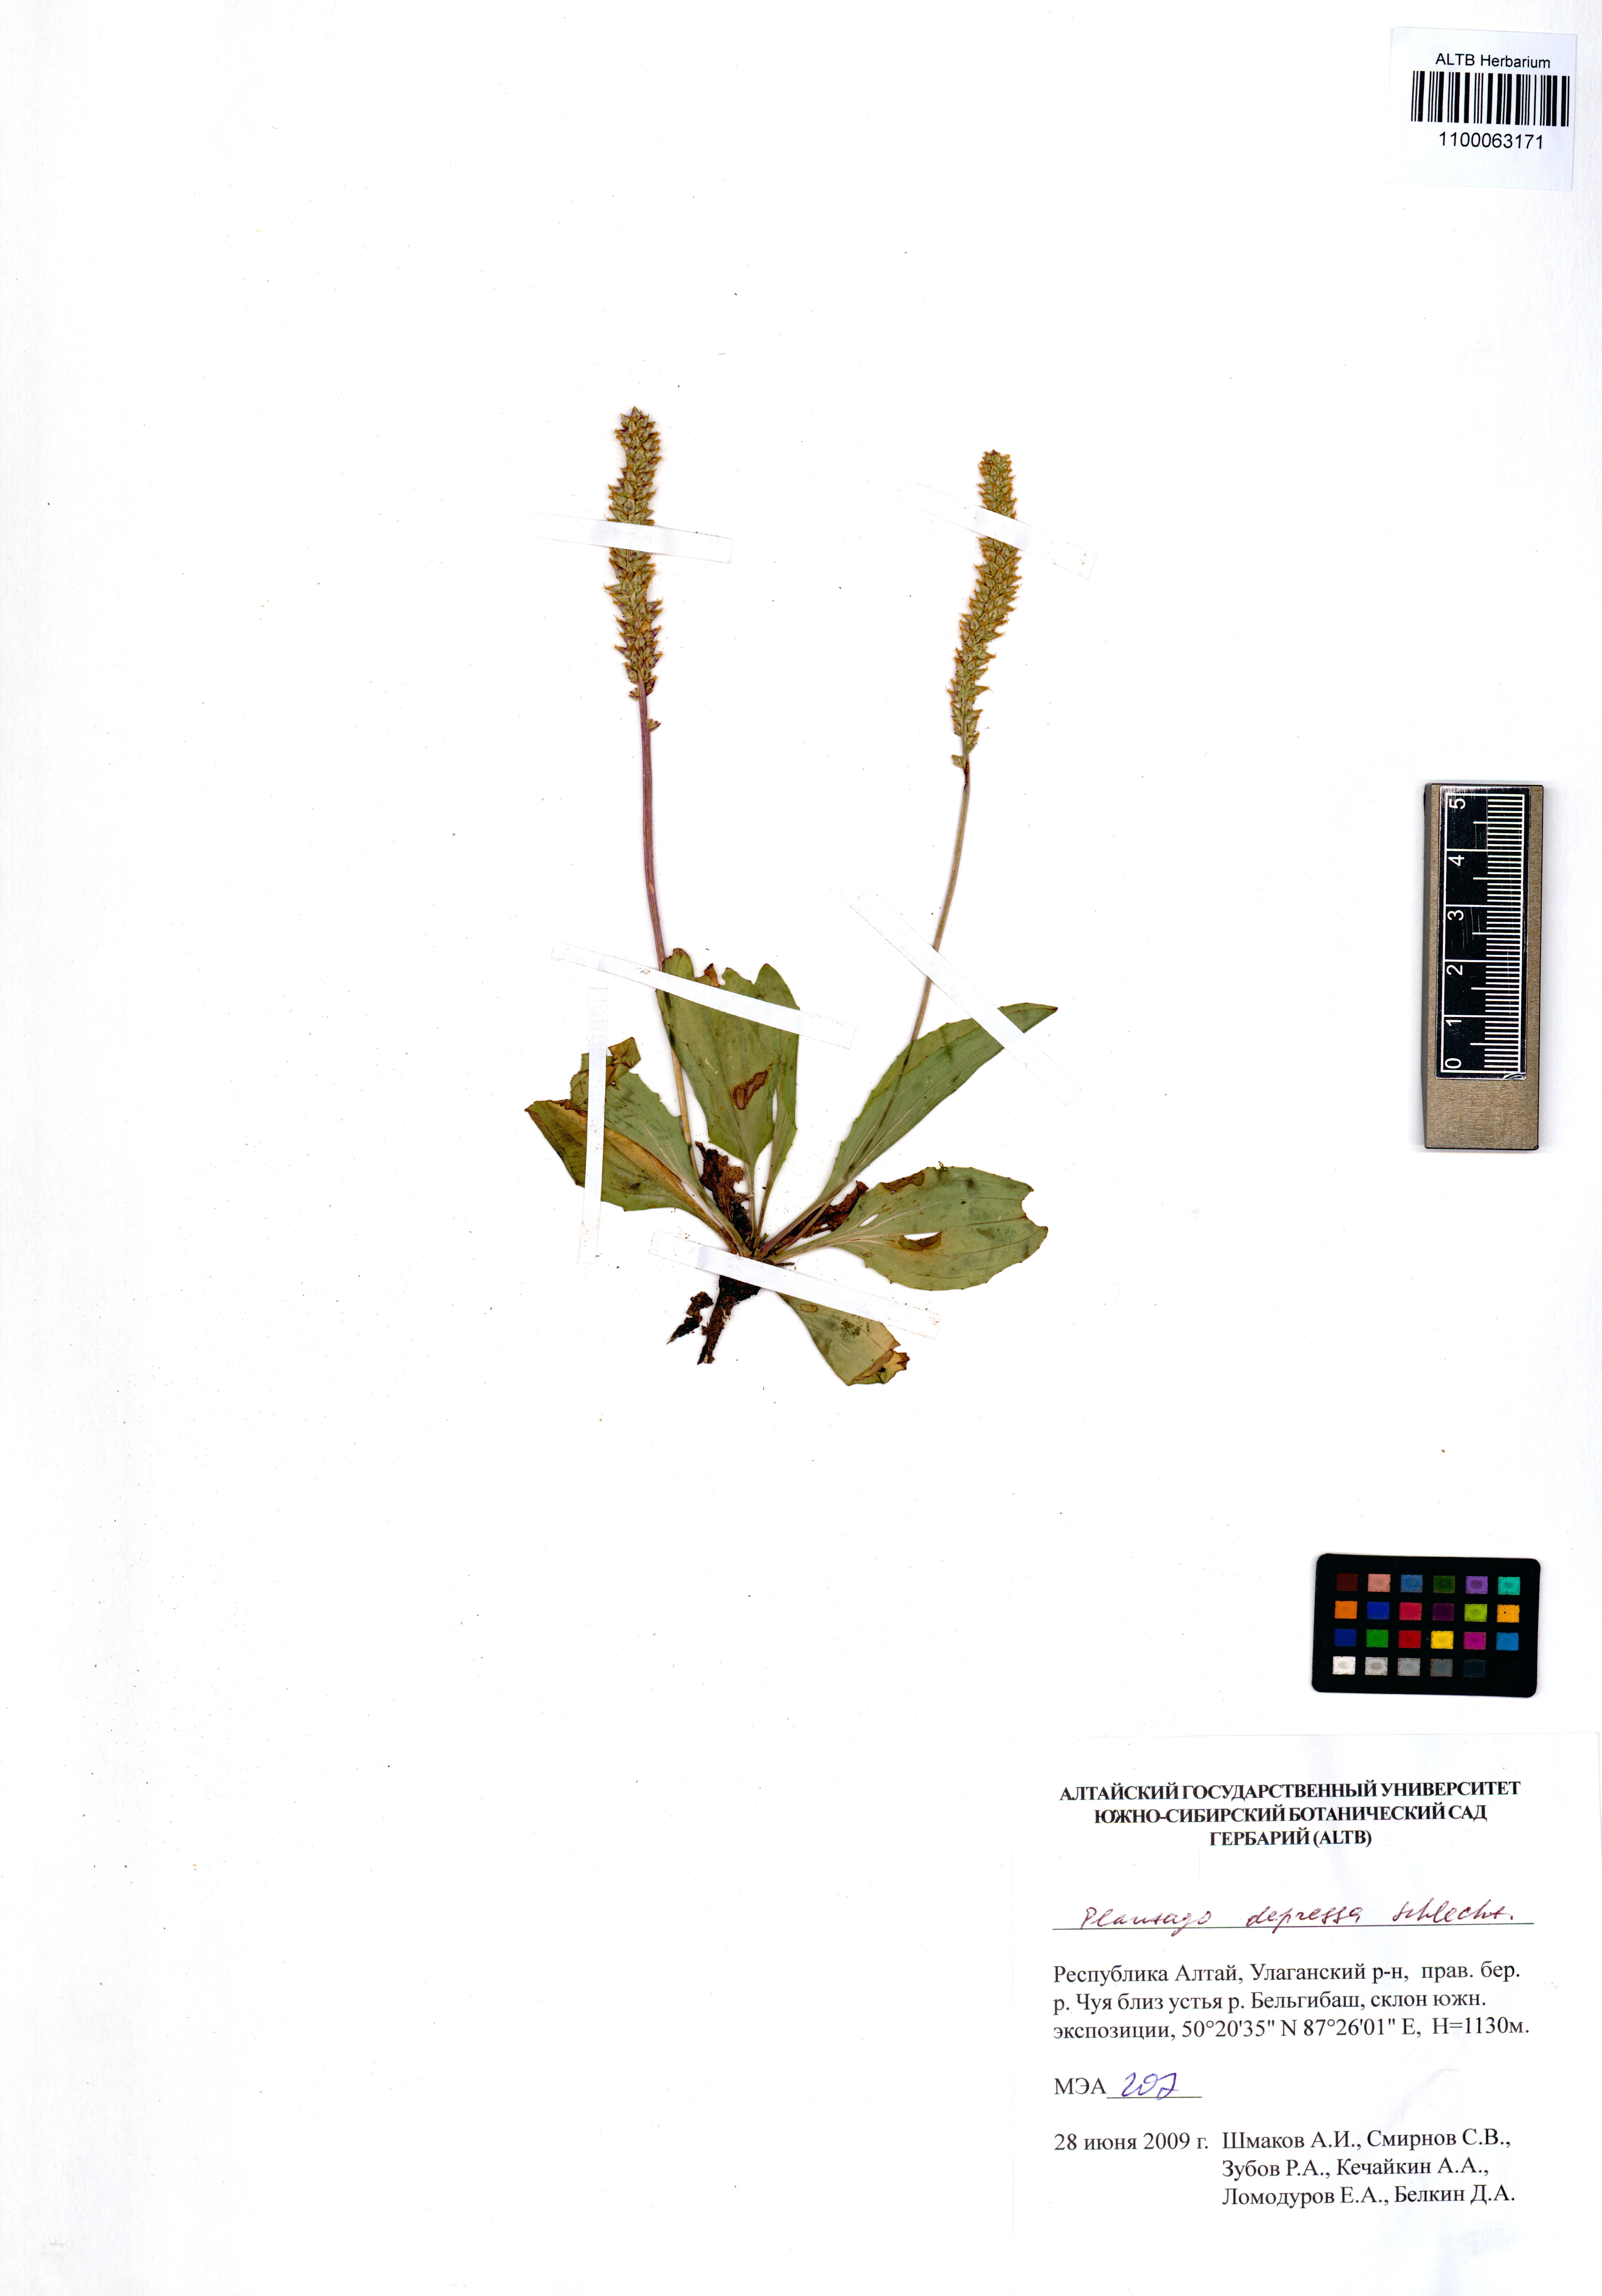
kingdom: Plantae
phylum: Tracheophyta
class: Magnoliopsida
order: Lamiales
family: Plantaginaceae
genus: Plantago
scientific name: Plantago depressa
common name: Depressed plantain
